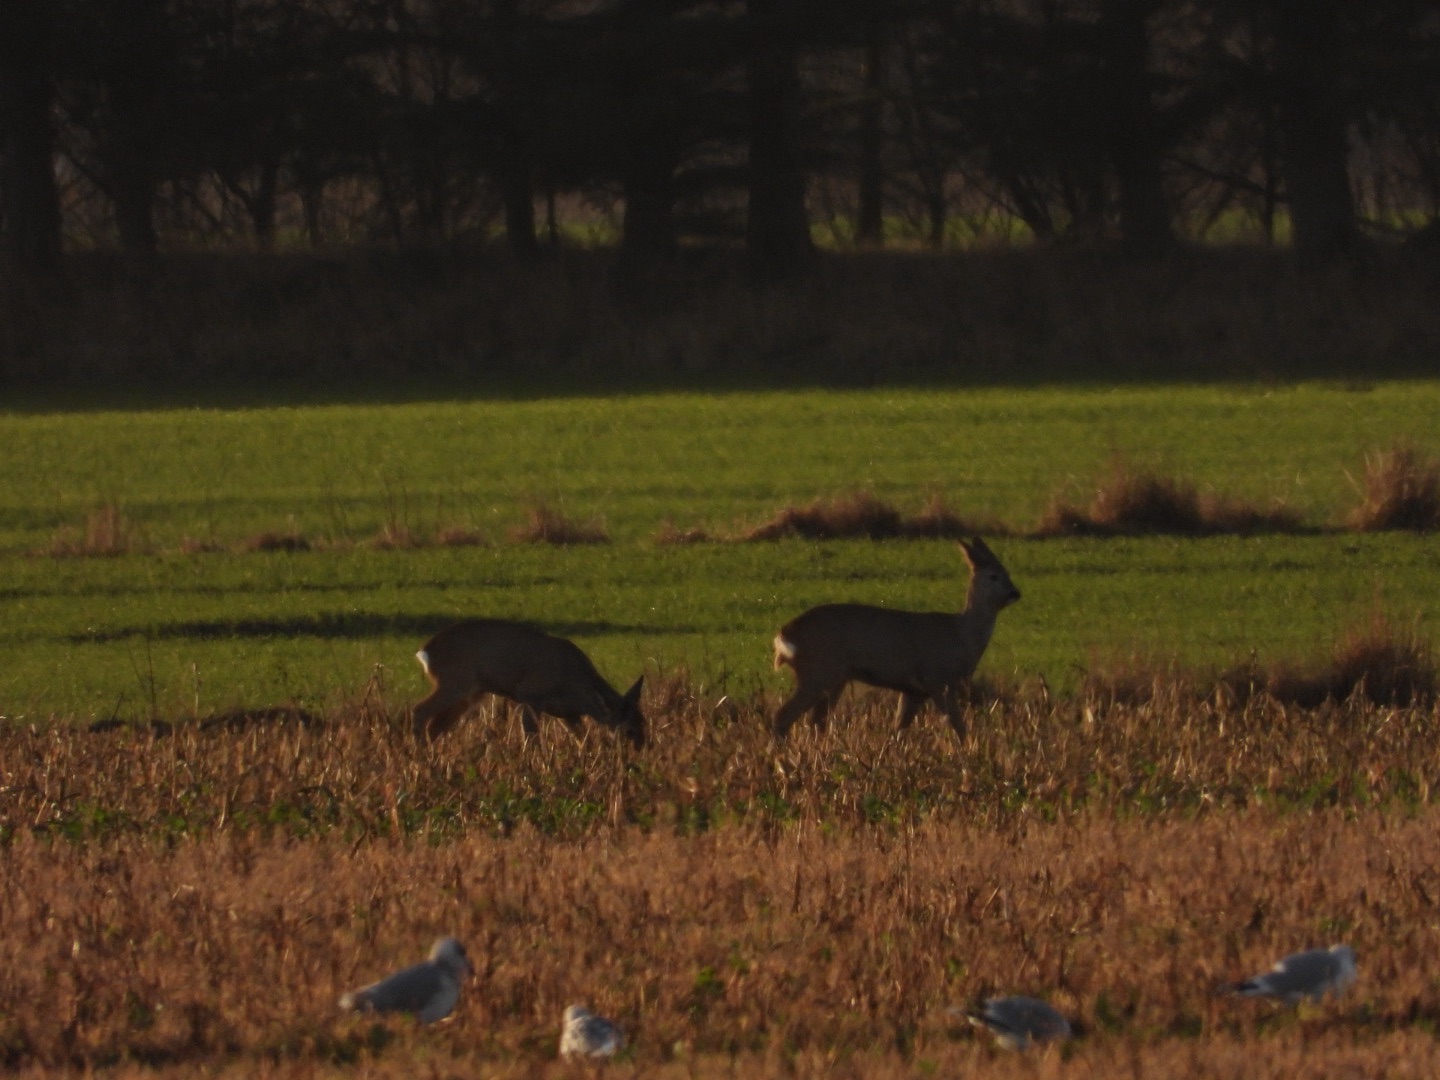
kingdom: Animalia
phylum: Chordata
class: Mammalia
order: Artiodactyla
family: Cervidae
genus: Capreolus
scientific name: Capreolus capreolus
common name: Rådyr
